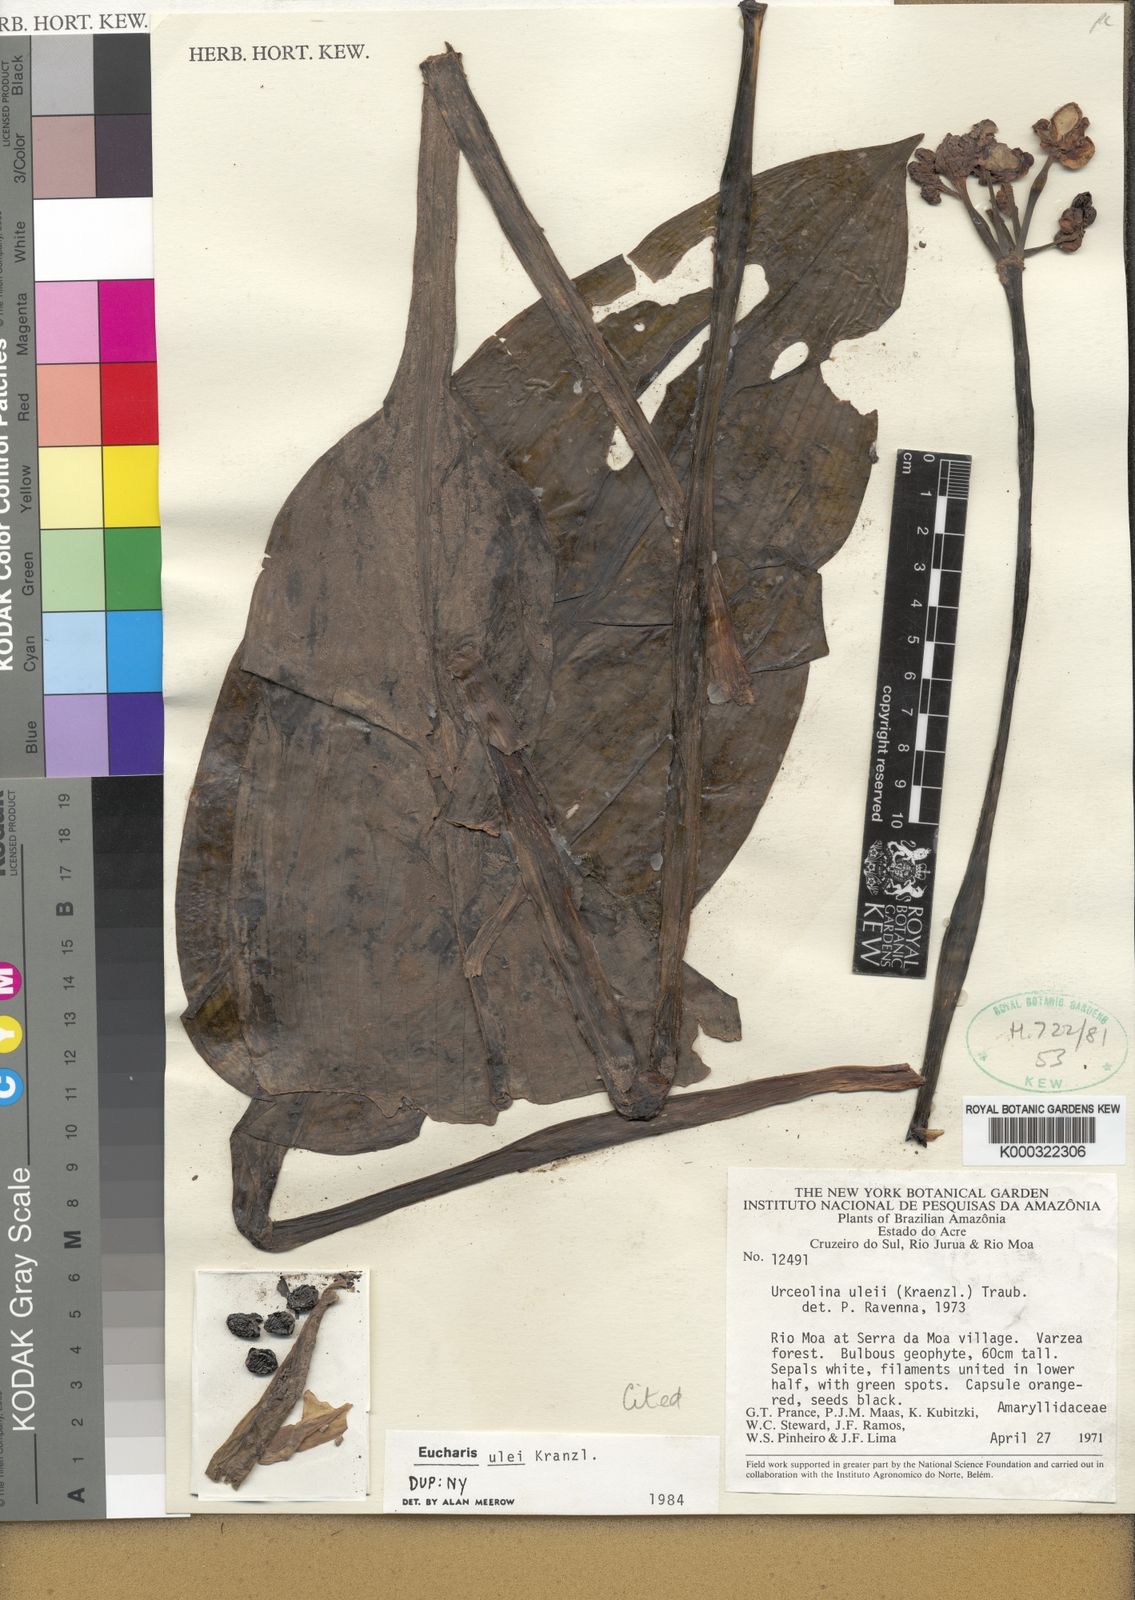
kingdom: Plantae
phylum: Tracheophyta
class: Liliopsida
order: Asparagales
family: Amaryllidaceae
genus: Urceolina
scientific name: Urceolina ulei
